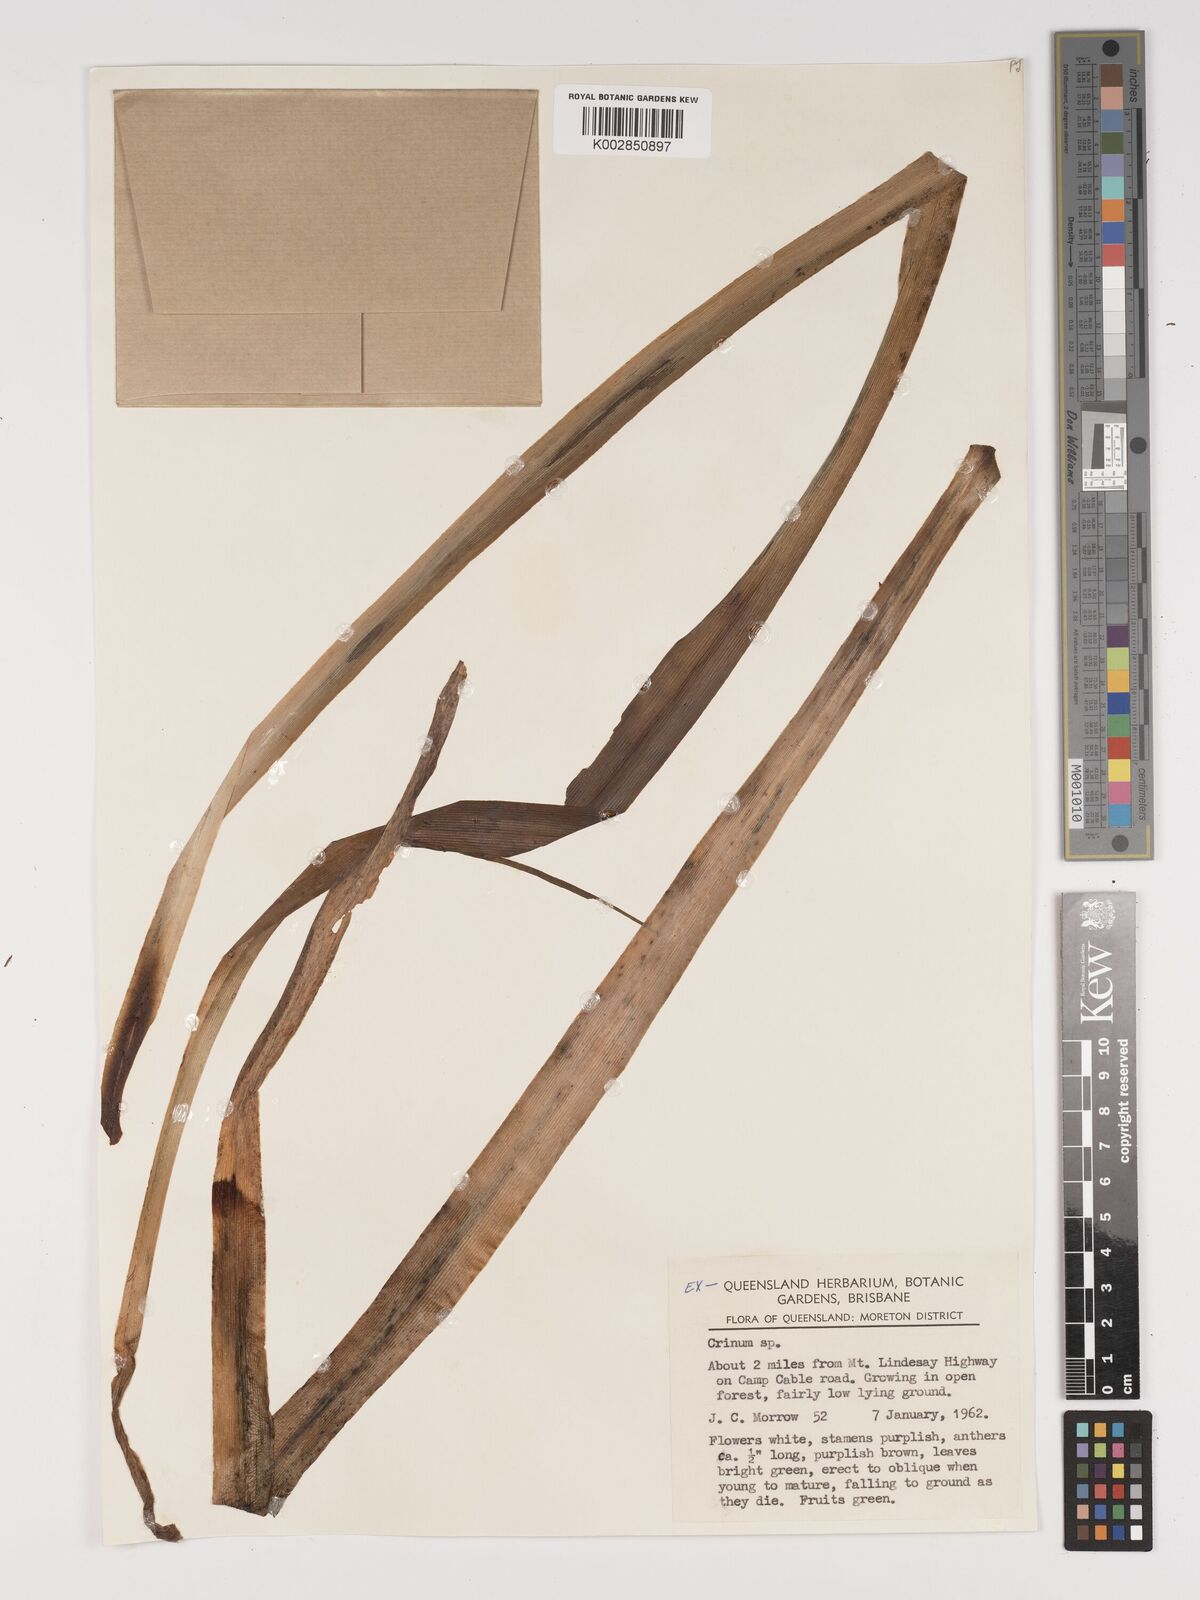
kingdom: Plantae
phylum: Tracheophyta
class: Liliopsida
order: Asparagales
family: Amaryllidaceae
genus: Crinum
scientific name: Crinum
